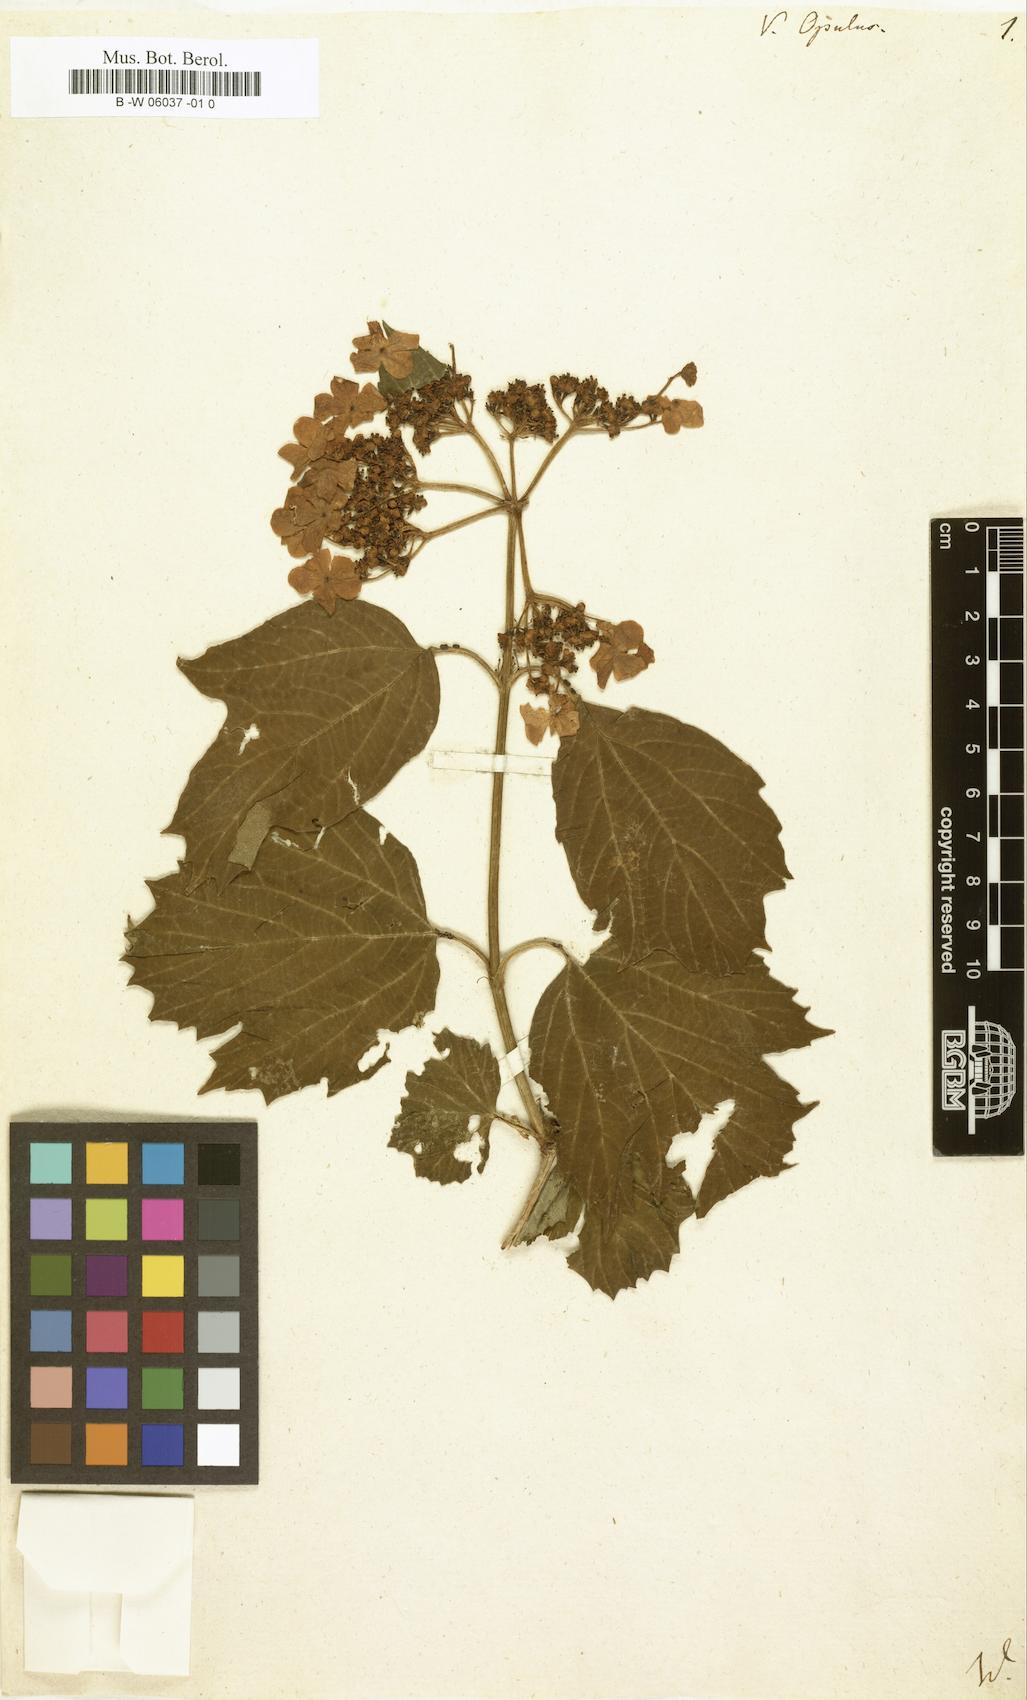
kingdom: Plantae
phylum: Tracheophyta
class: Magnoliopsida
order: Dipsacales
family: Viburnaceae
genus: Viburnum
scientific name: Viburnum opulus
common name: Guelder-rose
